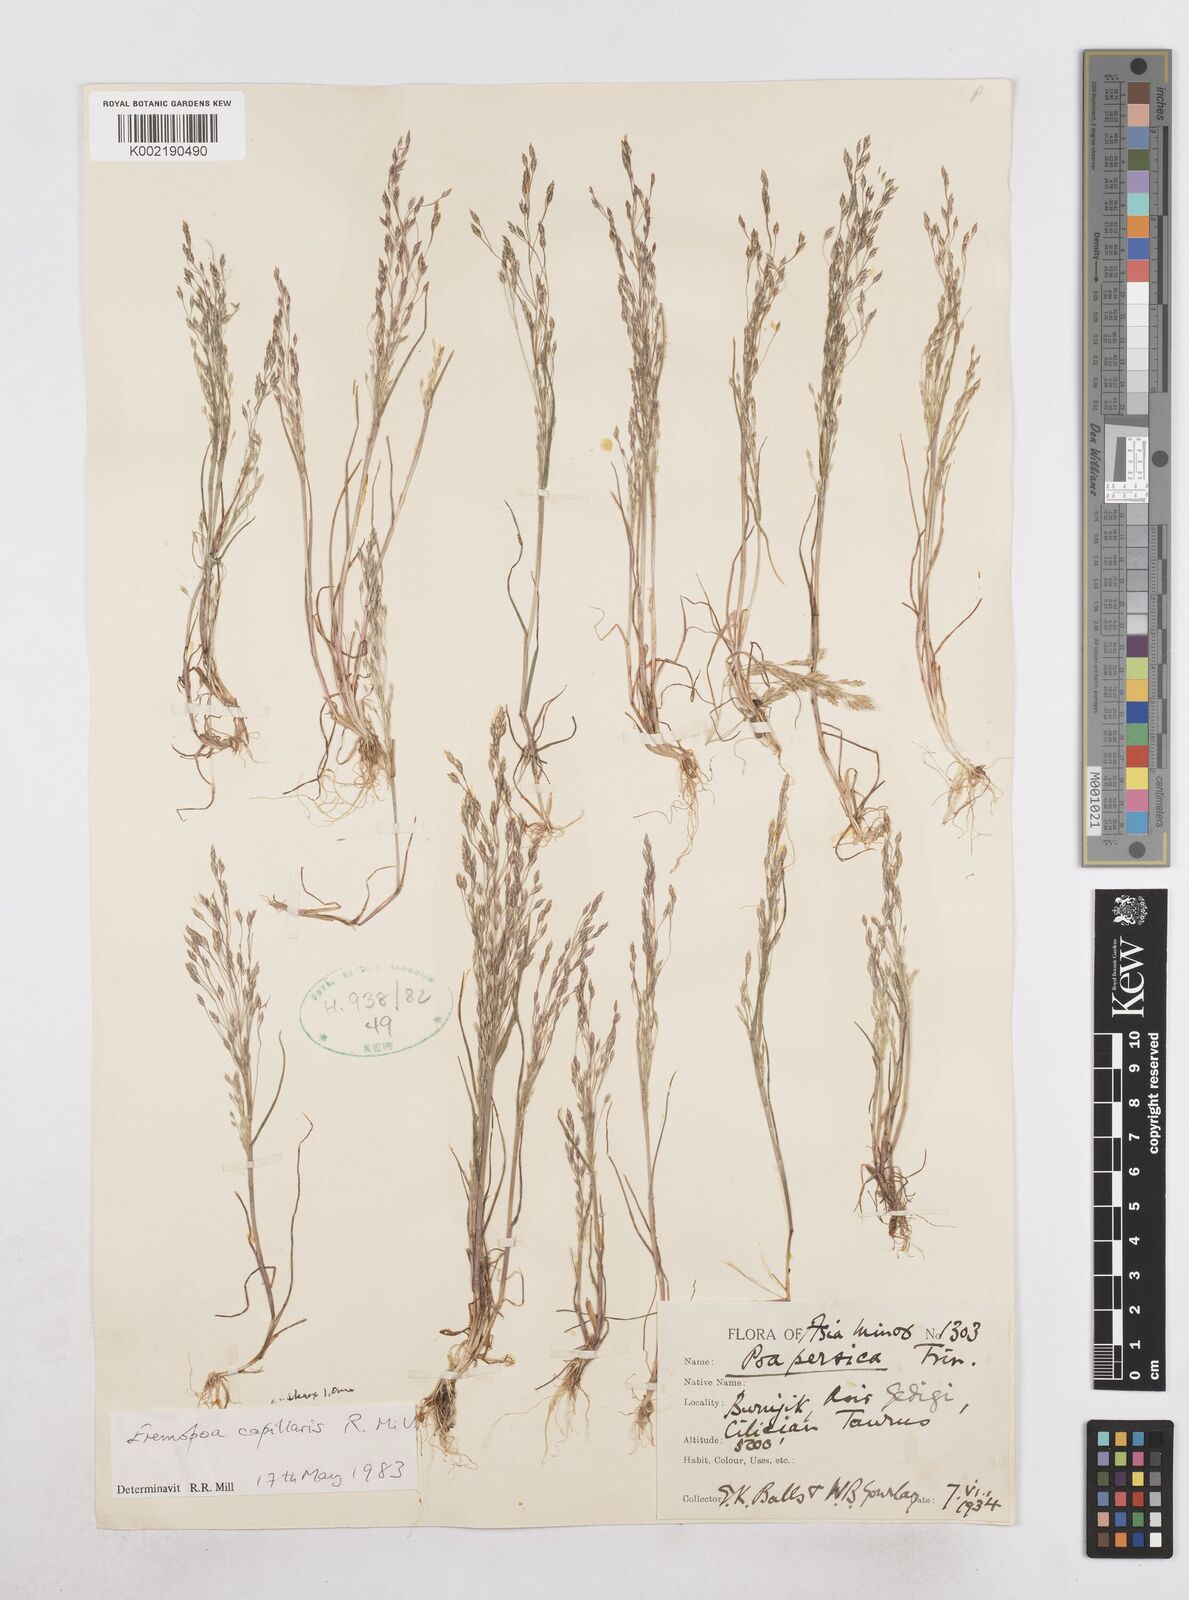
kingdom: Plantae
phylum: Tracheophyta
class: Liliopsida
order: Poales
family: Poaceae
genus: Poa
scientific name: Poa millii
